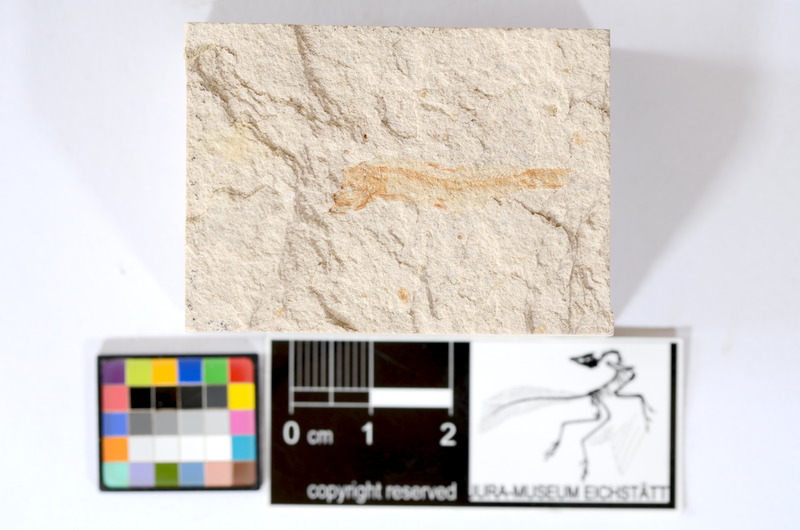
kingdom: Animalia
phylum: Chordata
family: Ascalaboidae
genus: Tharsis
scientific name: Tharsis dubius
